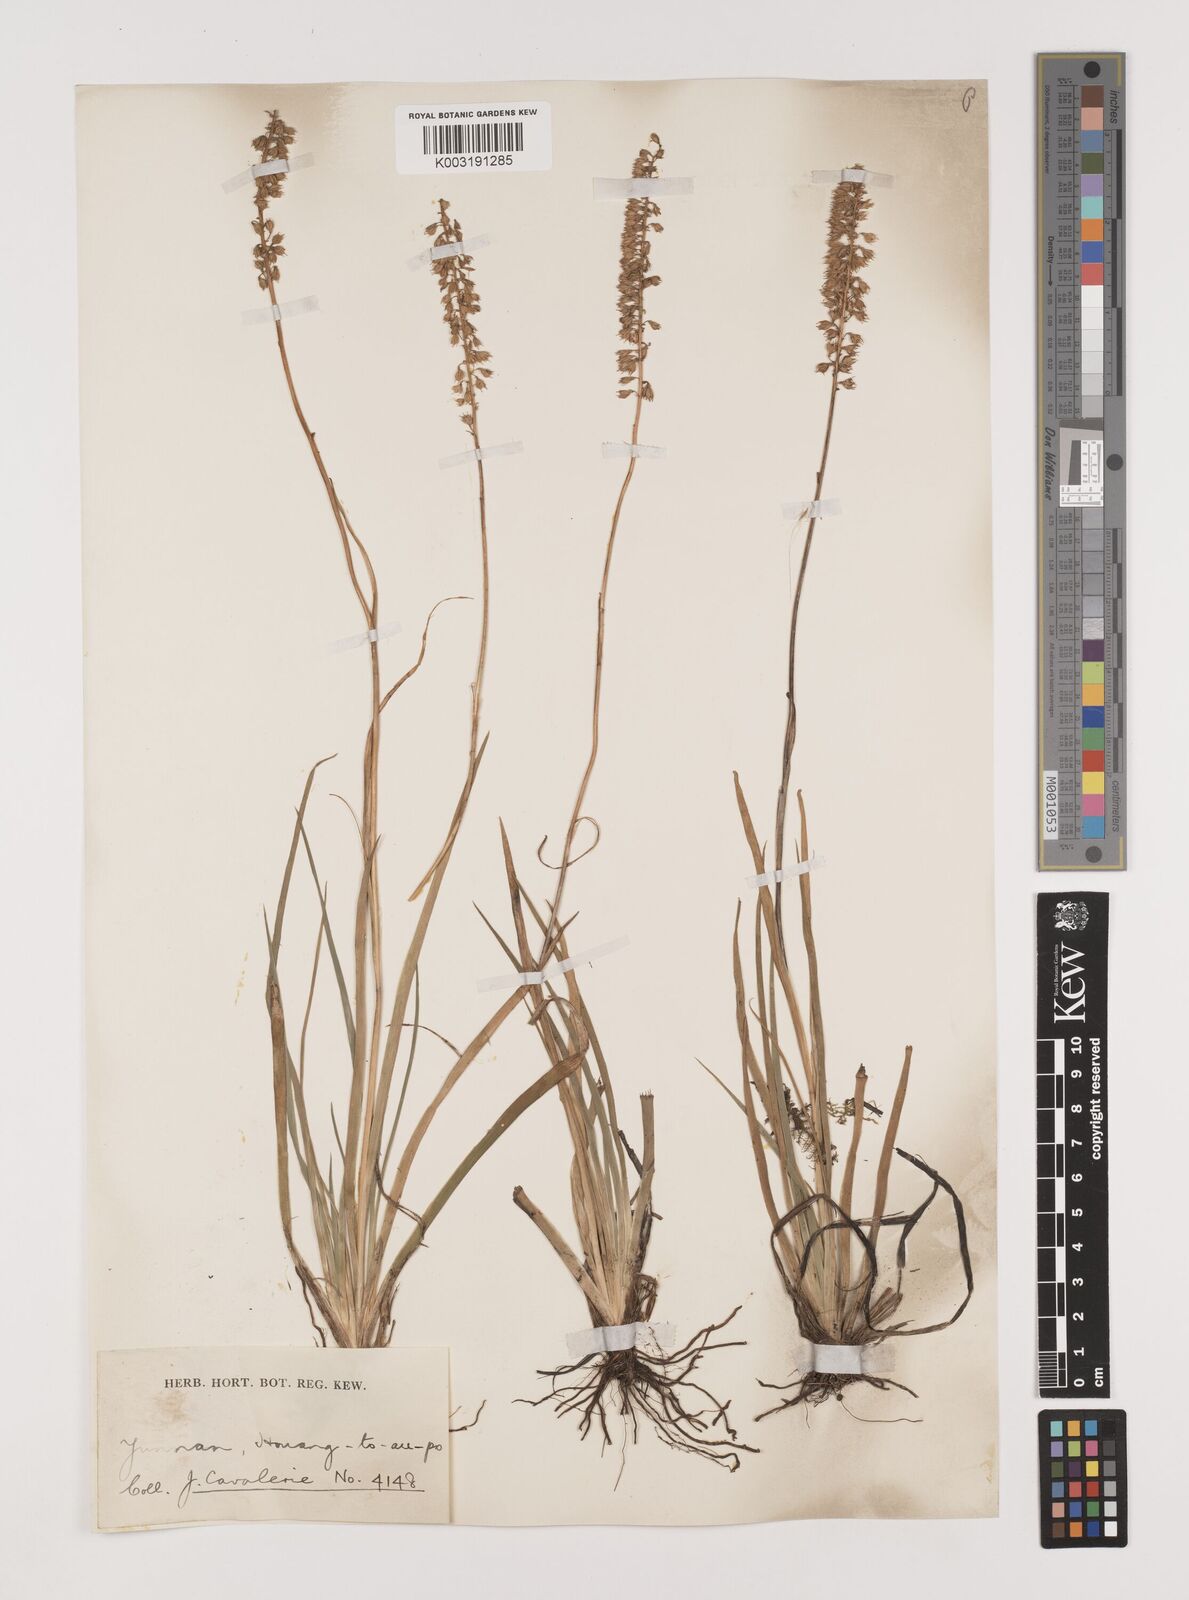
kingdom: Plantae
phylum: Tracheophyta
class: Liliopsida
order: Alismatales
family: Tofieldiaceae
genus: Tofieldia
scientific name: Tofieldia divergens
